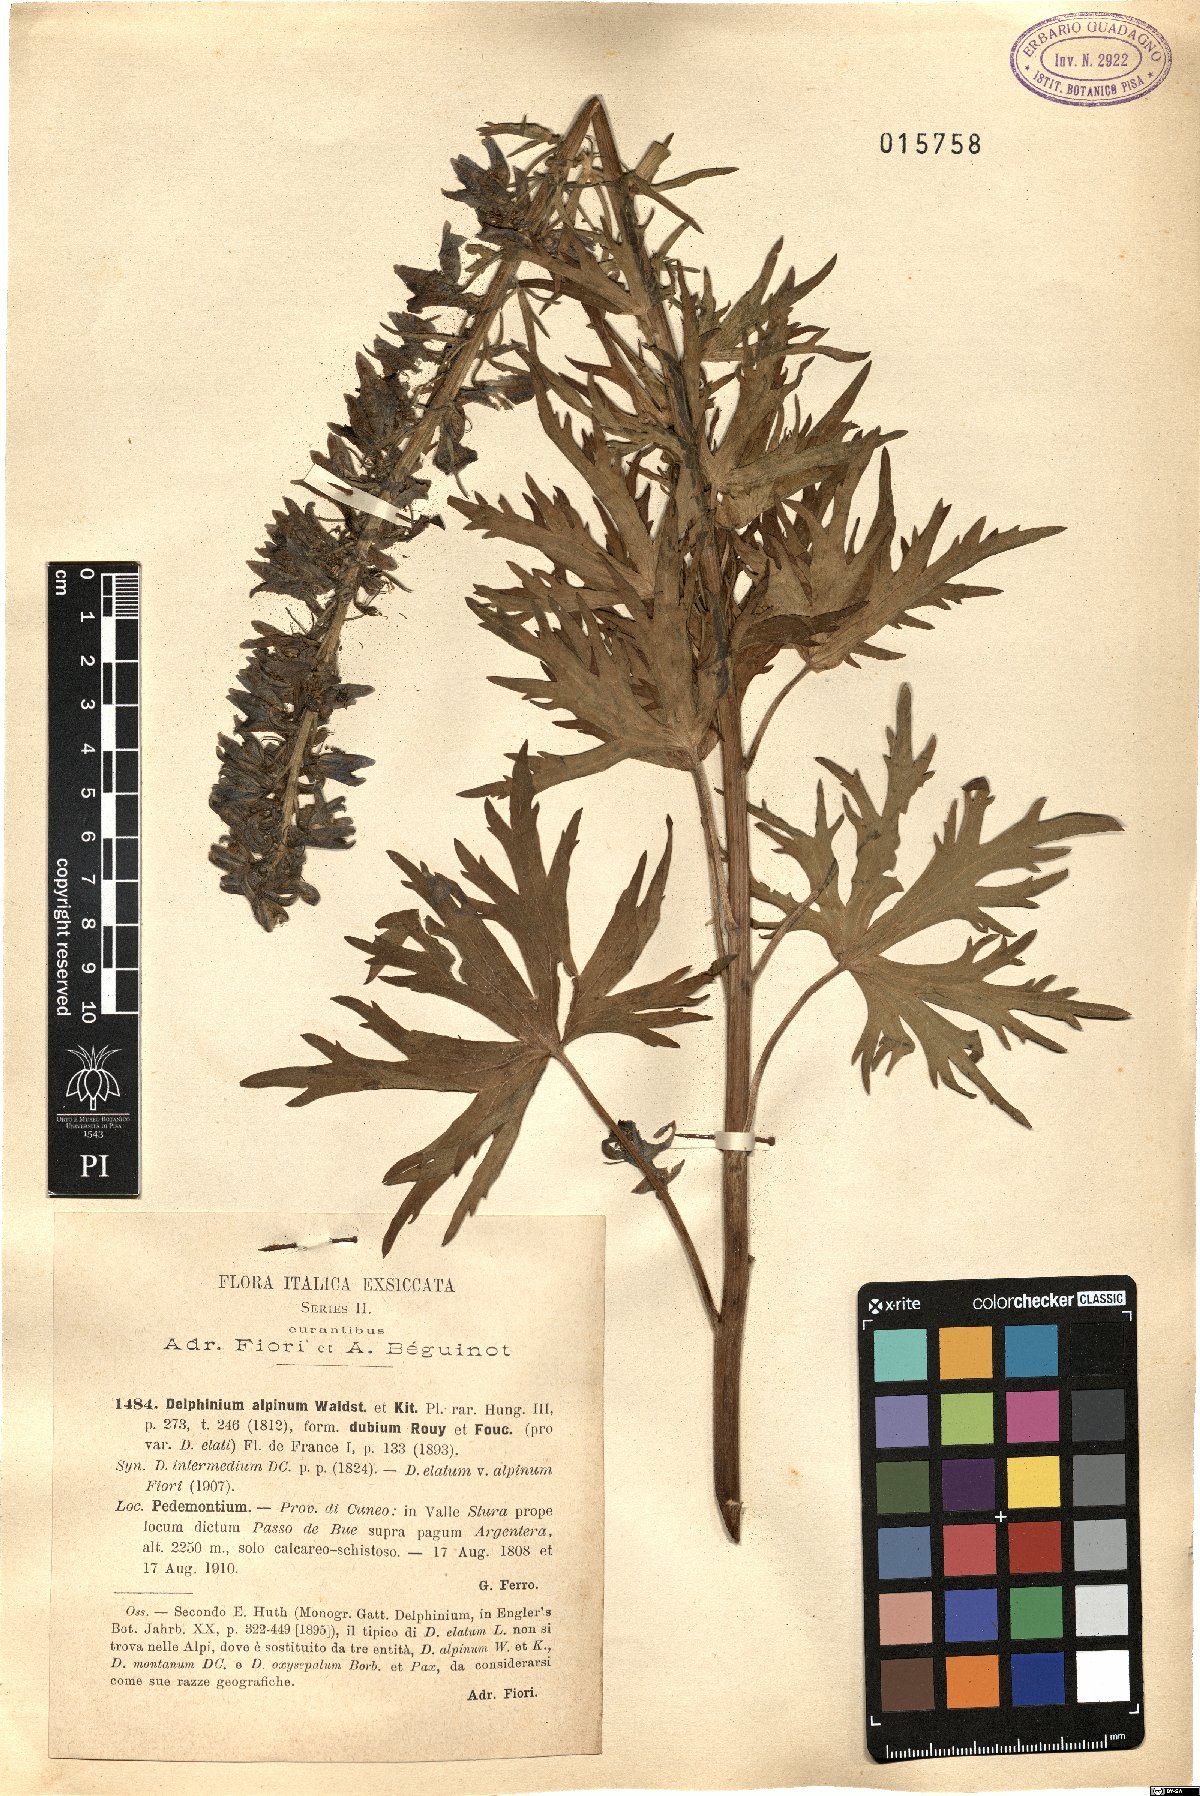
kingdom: Plantae
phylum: Tracheophyta
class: Magnoliopsida
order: Ranunculales
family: Ranunculaceae
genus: Delphinium
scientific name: Delphinium elatum
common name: Candle larkspur
